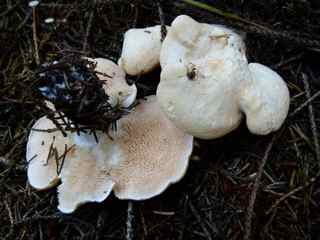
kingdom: Fungi
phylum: Basidiomycota
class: Agaricomycetes
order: Cantharellales
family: Hydnaceae
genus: Hydnum
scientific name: Hydnum repandum
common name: almindelig pigsvamp
